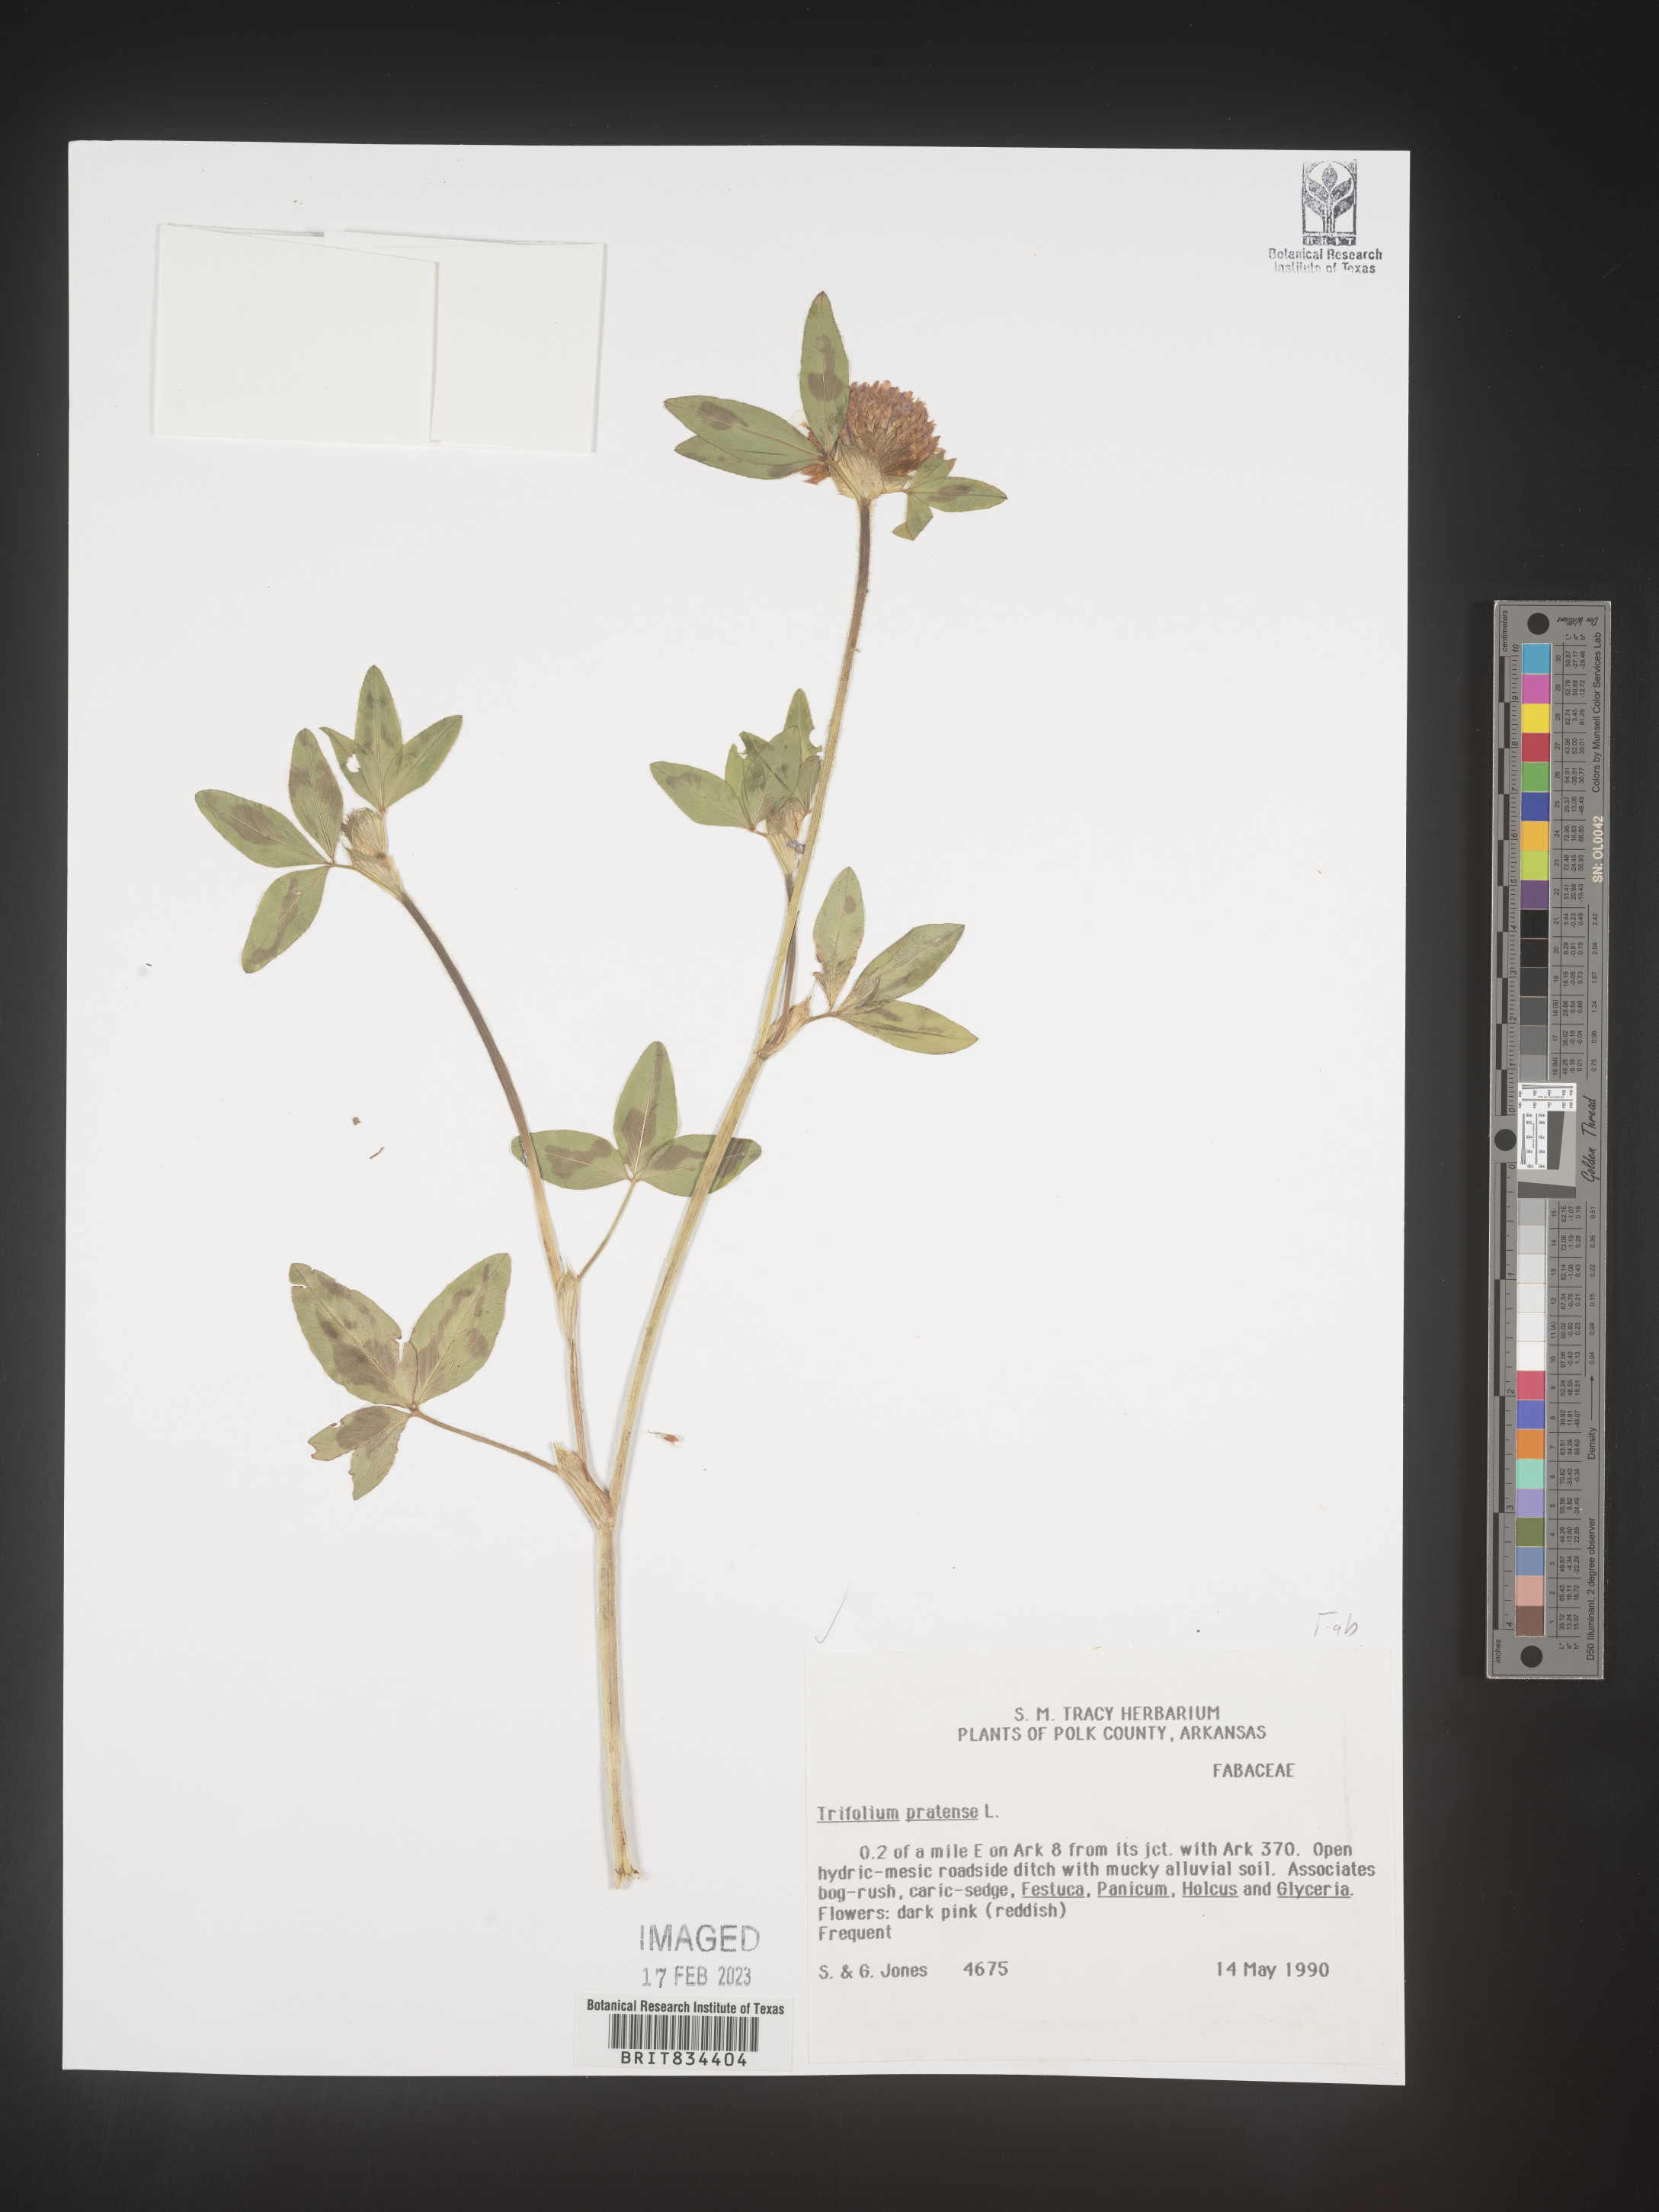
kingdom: Plantae
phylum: Tracheophyta
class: Magnoliopsida
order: Fabales
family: Fabaceae
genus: Trifolium
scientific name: Trifolium pratense
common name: Red clover
